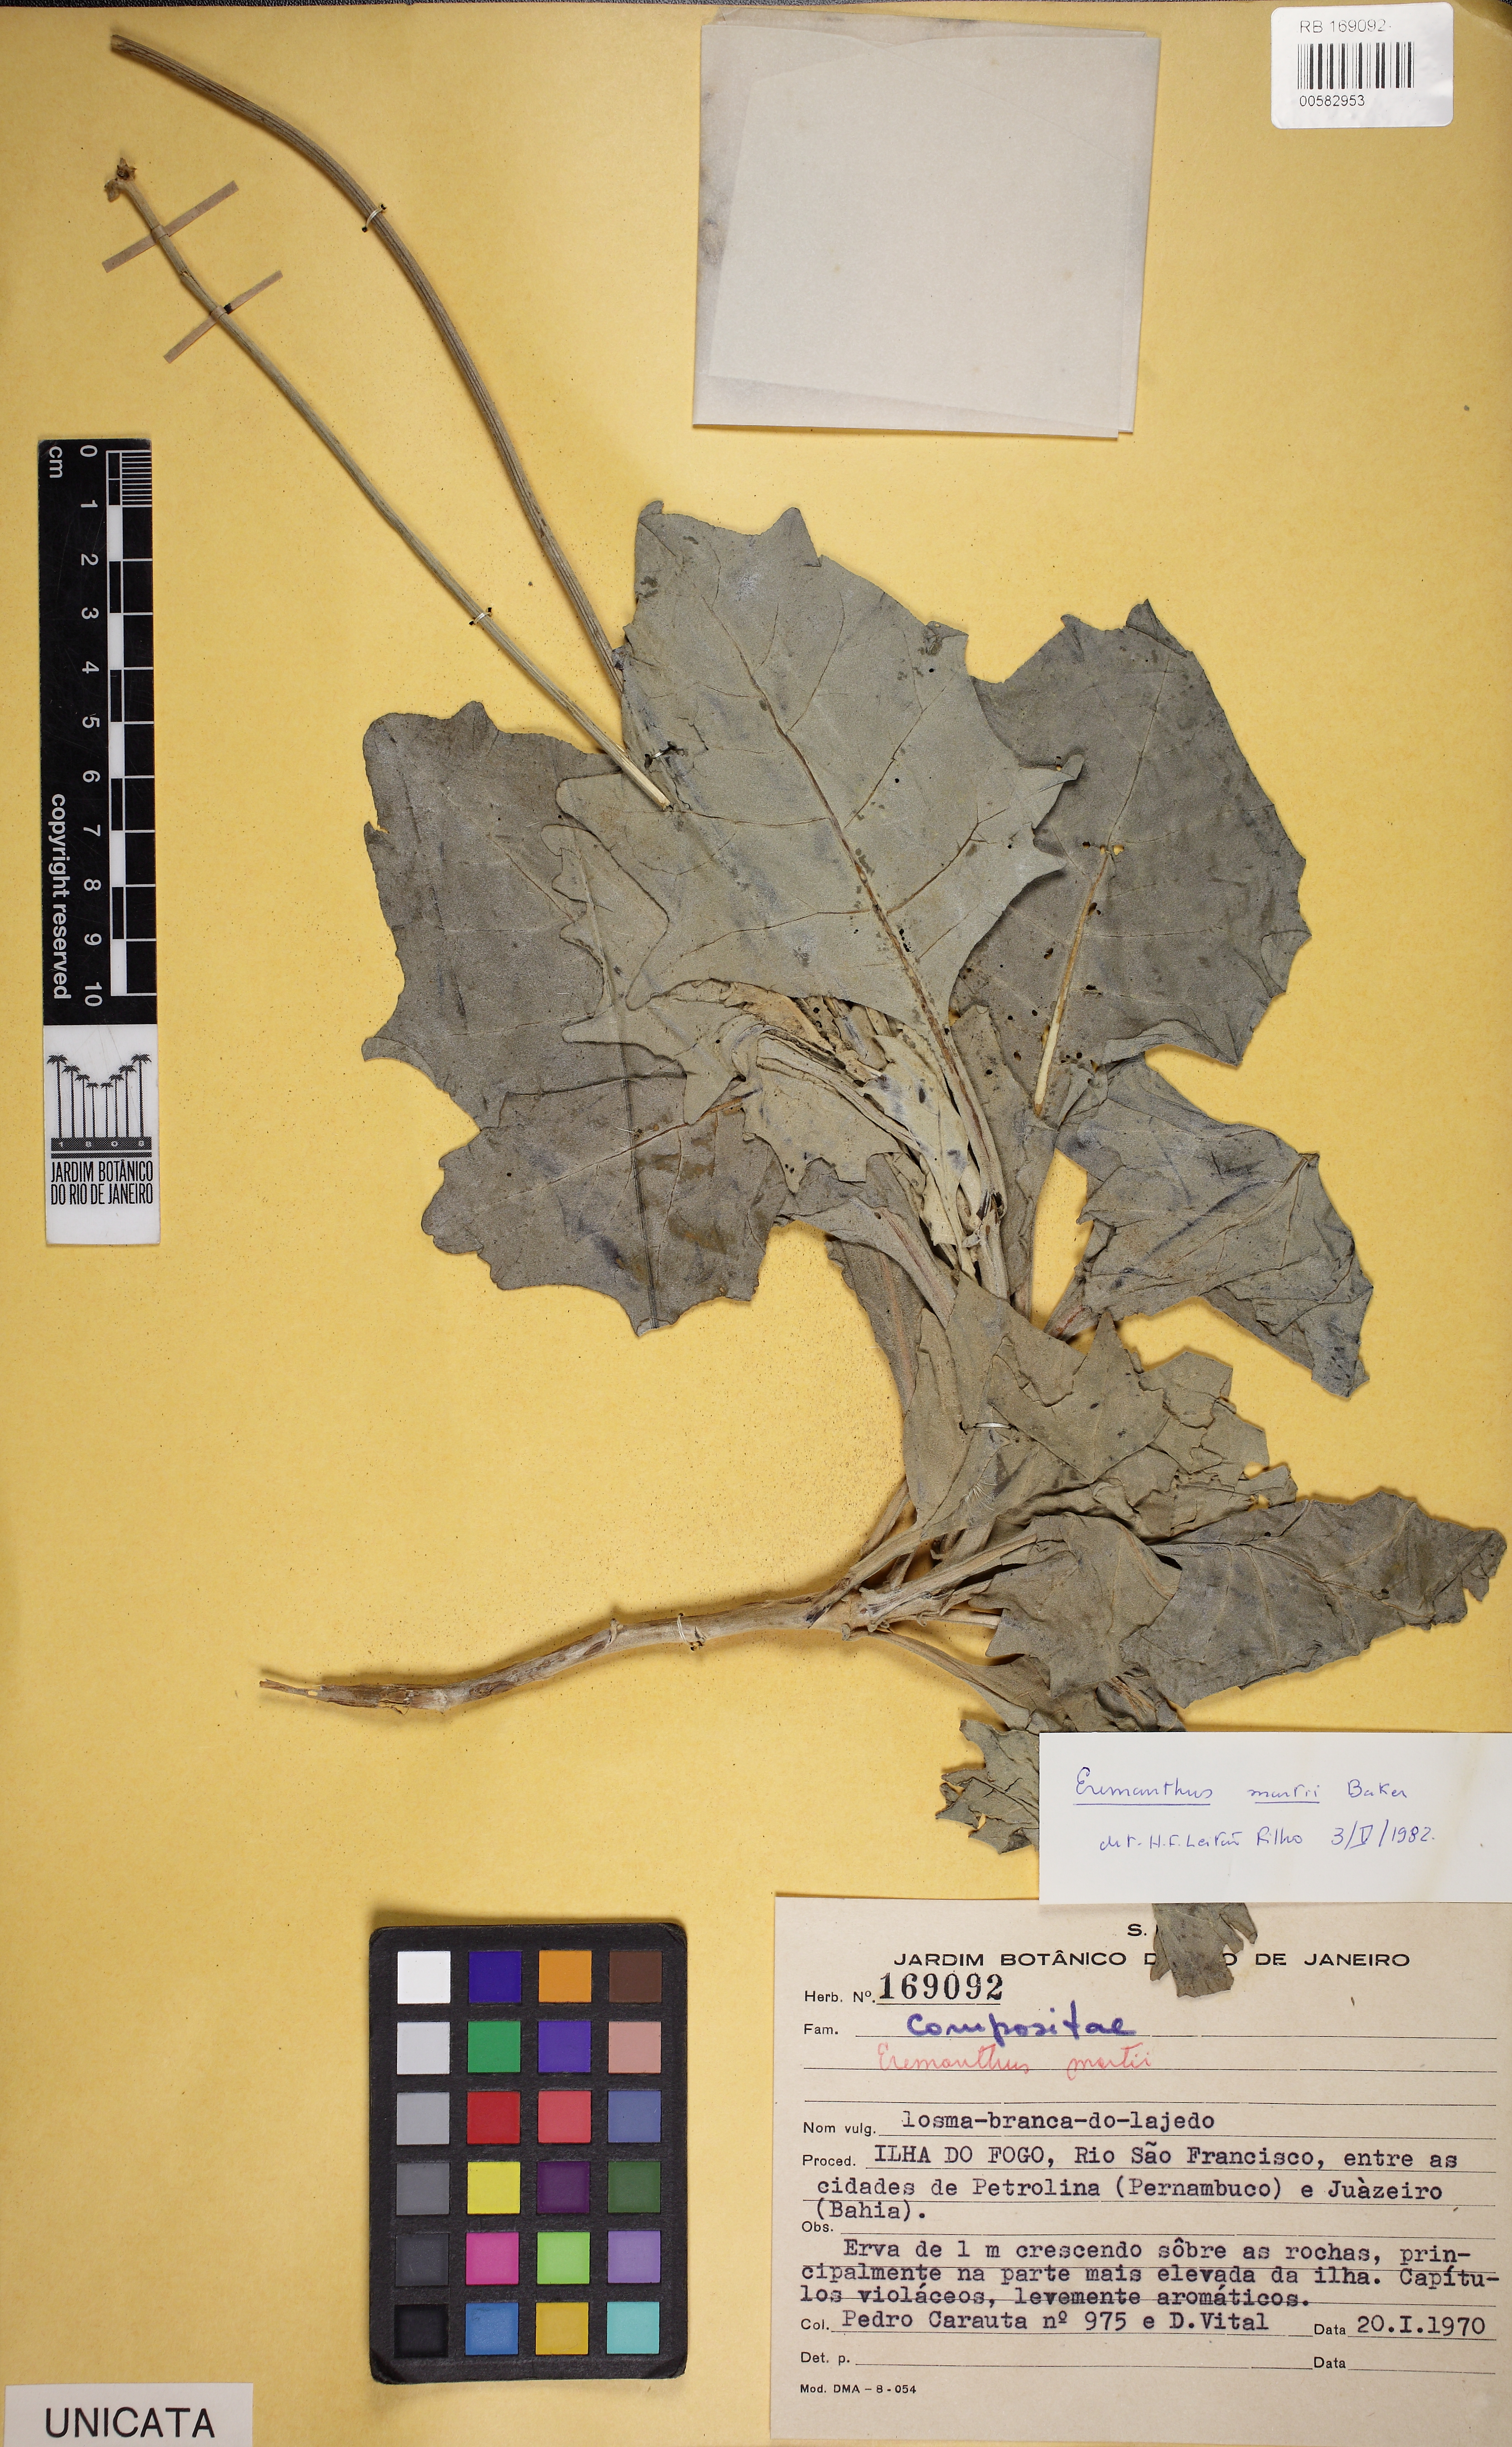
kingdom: Plantae
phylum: Tracheophyta
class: Magnoliopsida
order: Asterales
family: Asteraceae
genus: Chresta
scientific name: Chresta martii
